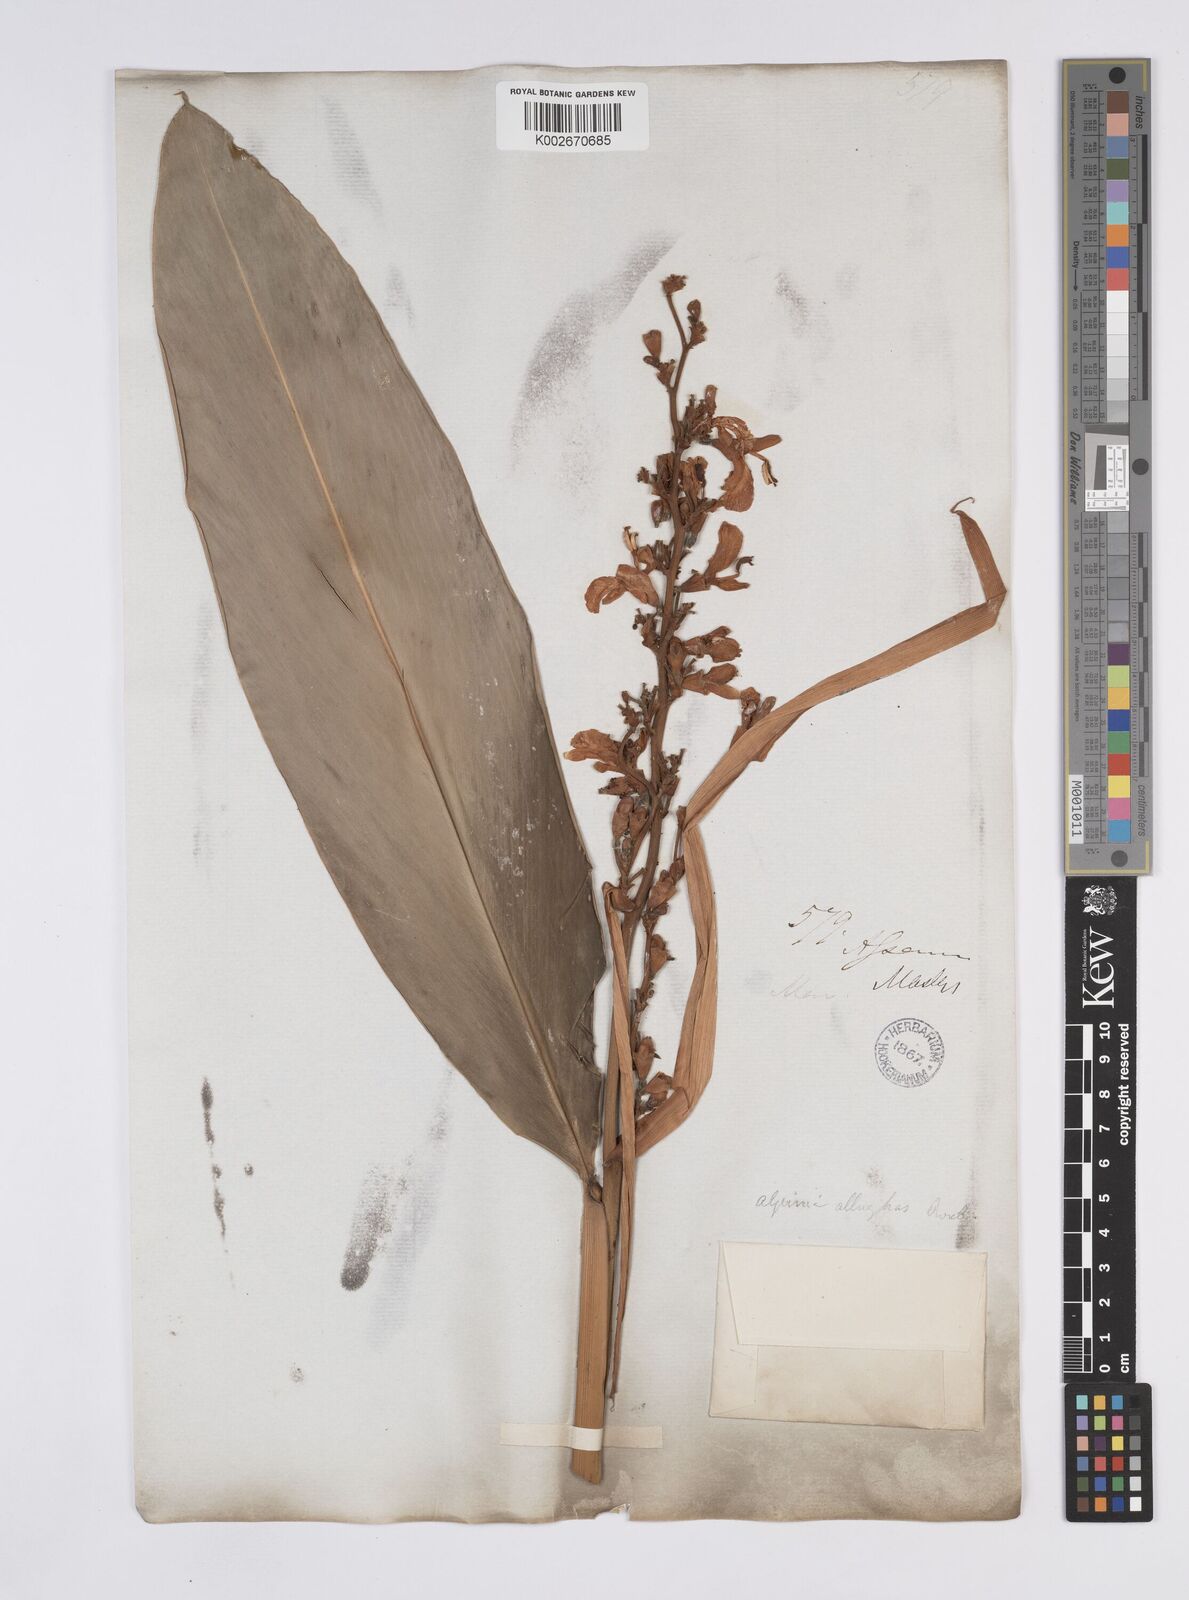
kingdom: Plantae
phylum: Tracheophyta
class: Liliopsida
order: Zingiberales
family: Zingiberaceae
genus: Alpinia
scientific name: Alpinia nigra
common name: Black fruited galanga
